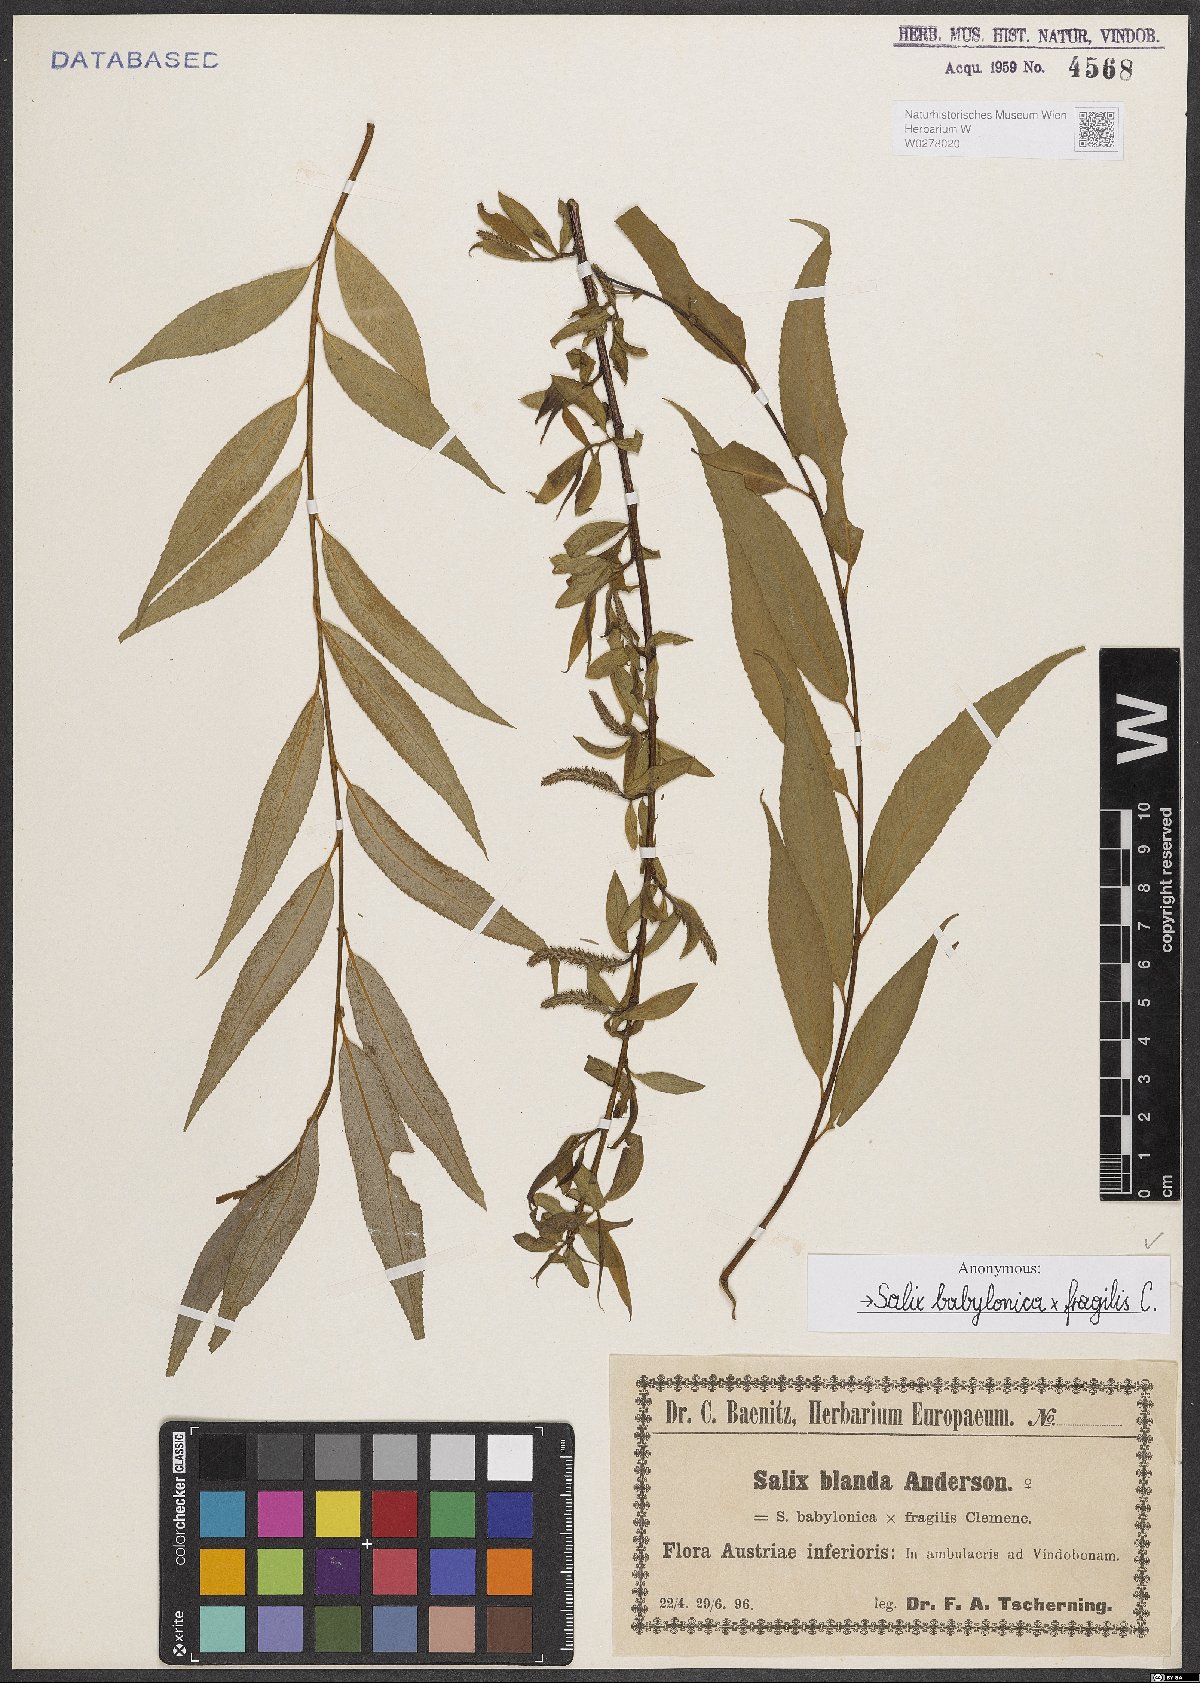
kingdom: Plantae
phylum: Tracheophyta
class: Magnoliopsida
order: Malpighiales
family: Salicaceae
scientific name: Salicaceae
